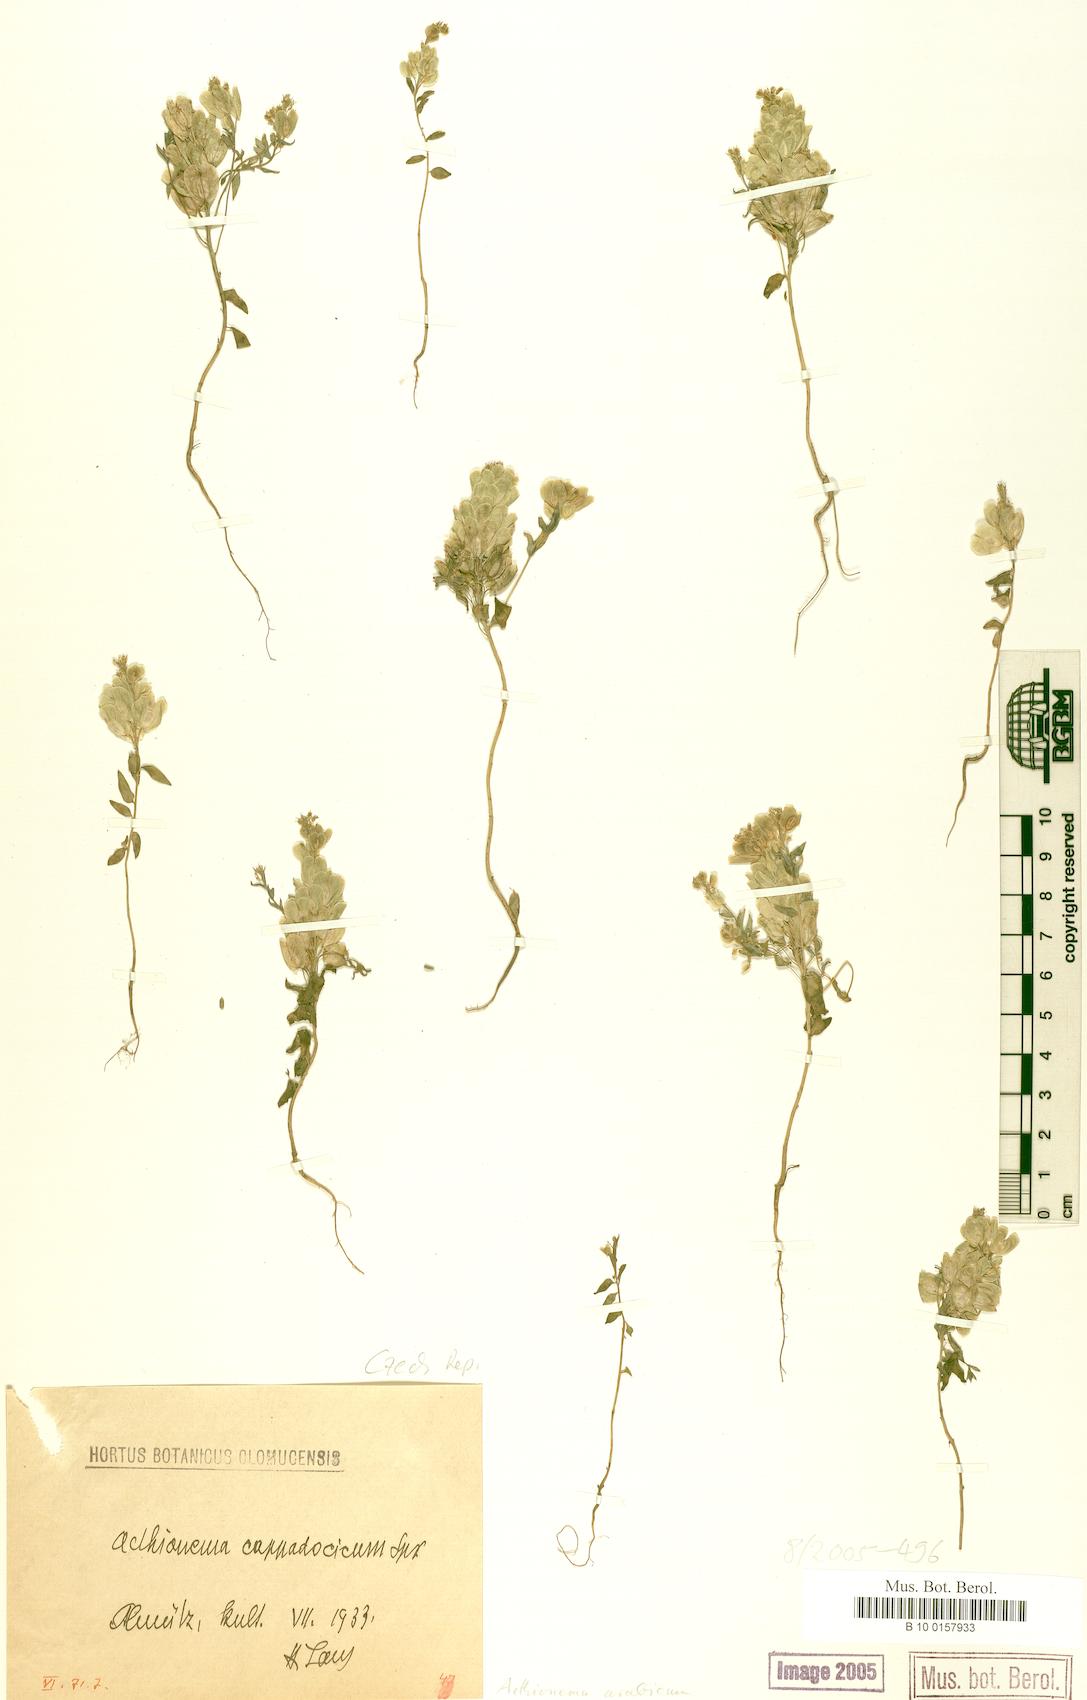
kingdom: Plantae
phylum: Tracheophyta
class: Magnoliopsida
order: Brassicales
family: Brassicaceae
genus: Aethionema
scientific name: Aethionema arabicum
